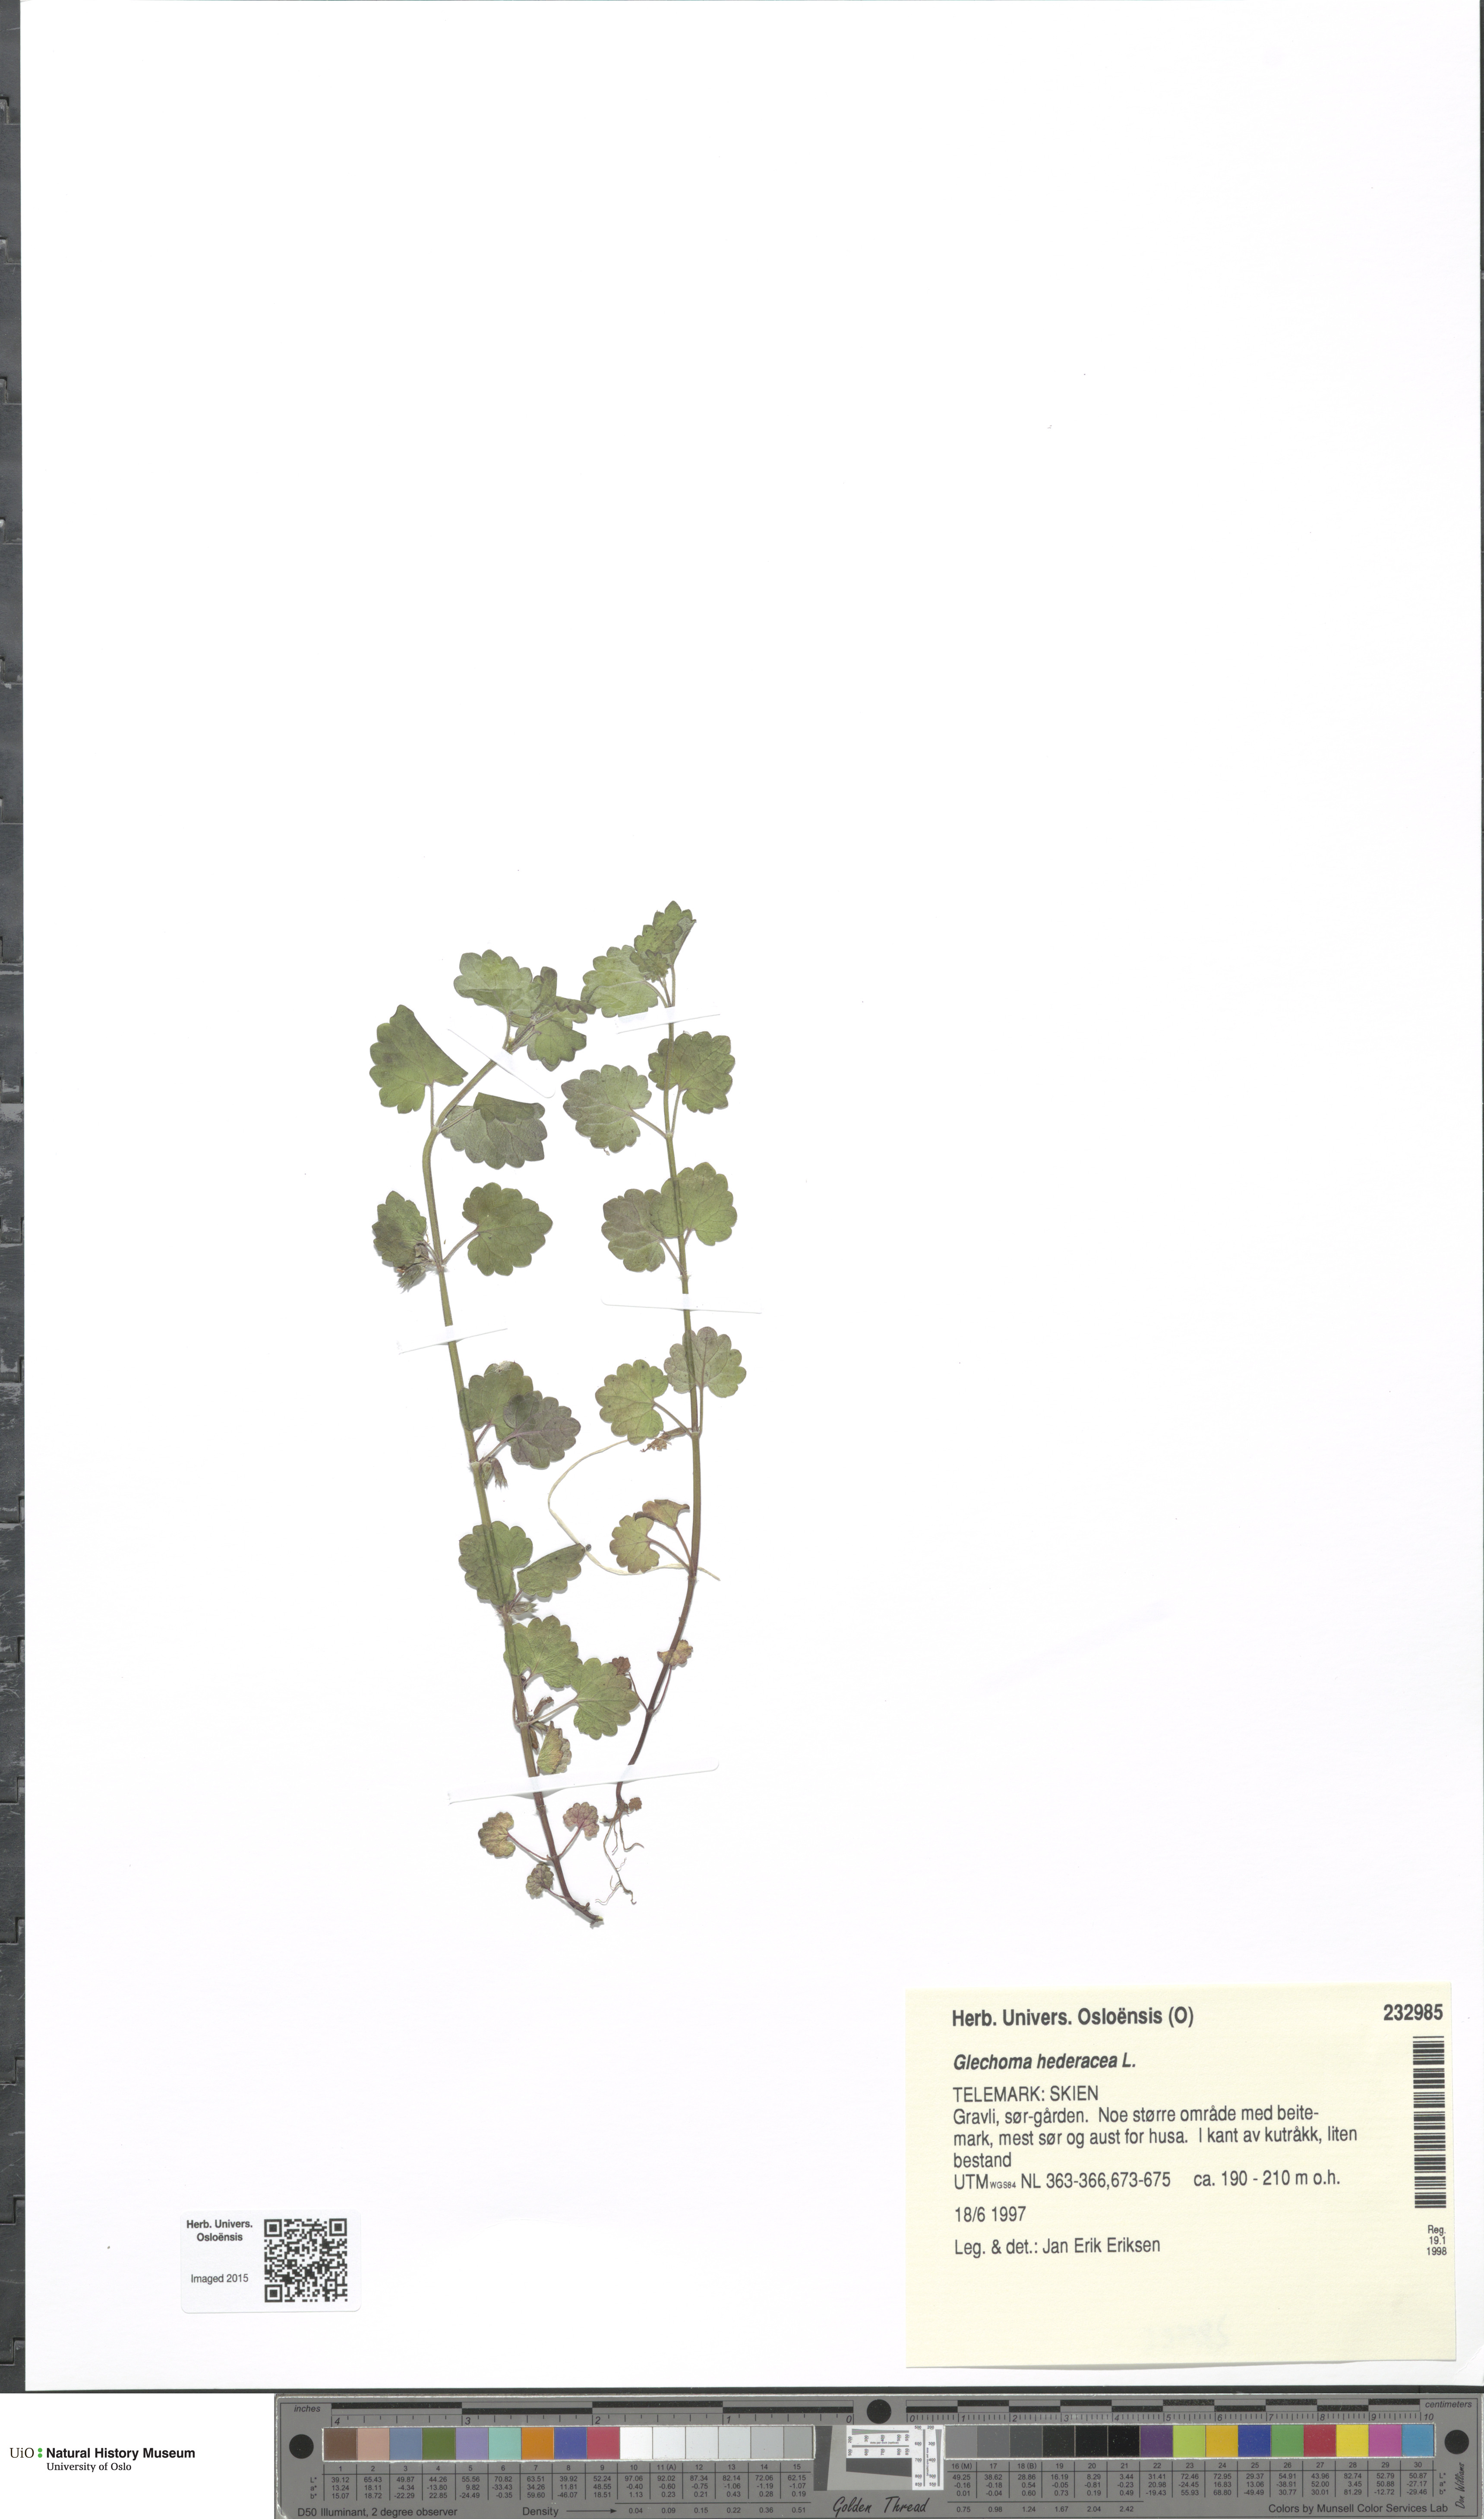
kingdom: Plantae
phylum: Tracheophyta
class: Magnoliopsida
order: Lamiales
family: Lamiaceae
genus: Glechoma
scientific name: Glechoma hederacea
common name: Ground ivy
